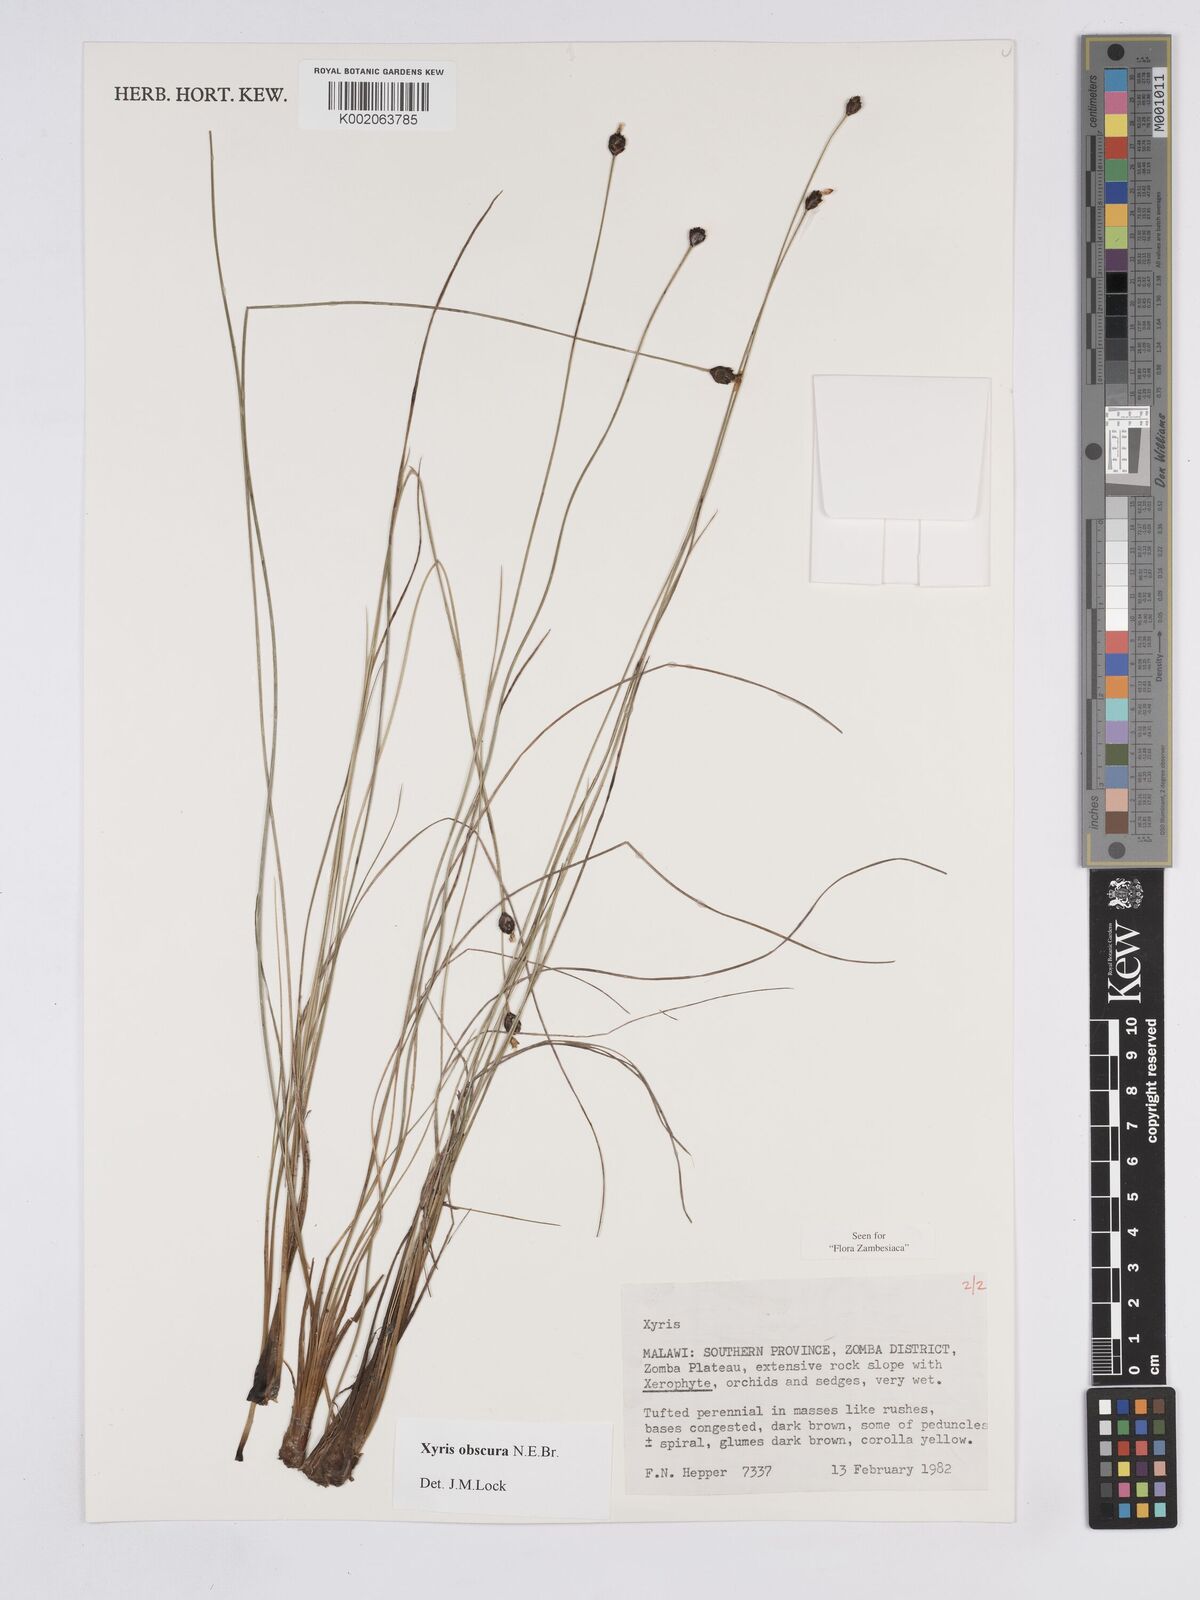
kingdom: Plantae
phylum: Tracheophyta
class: Liliopsida
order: Poales
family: Xyridaceae
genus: Xyris
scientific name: Xyris obscura
